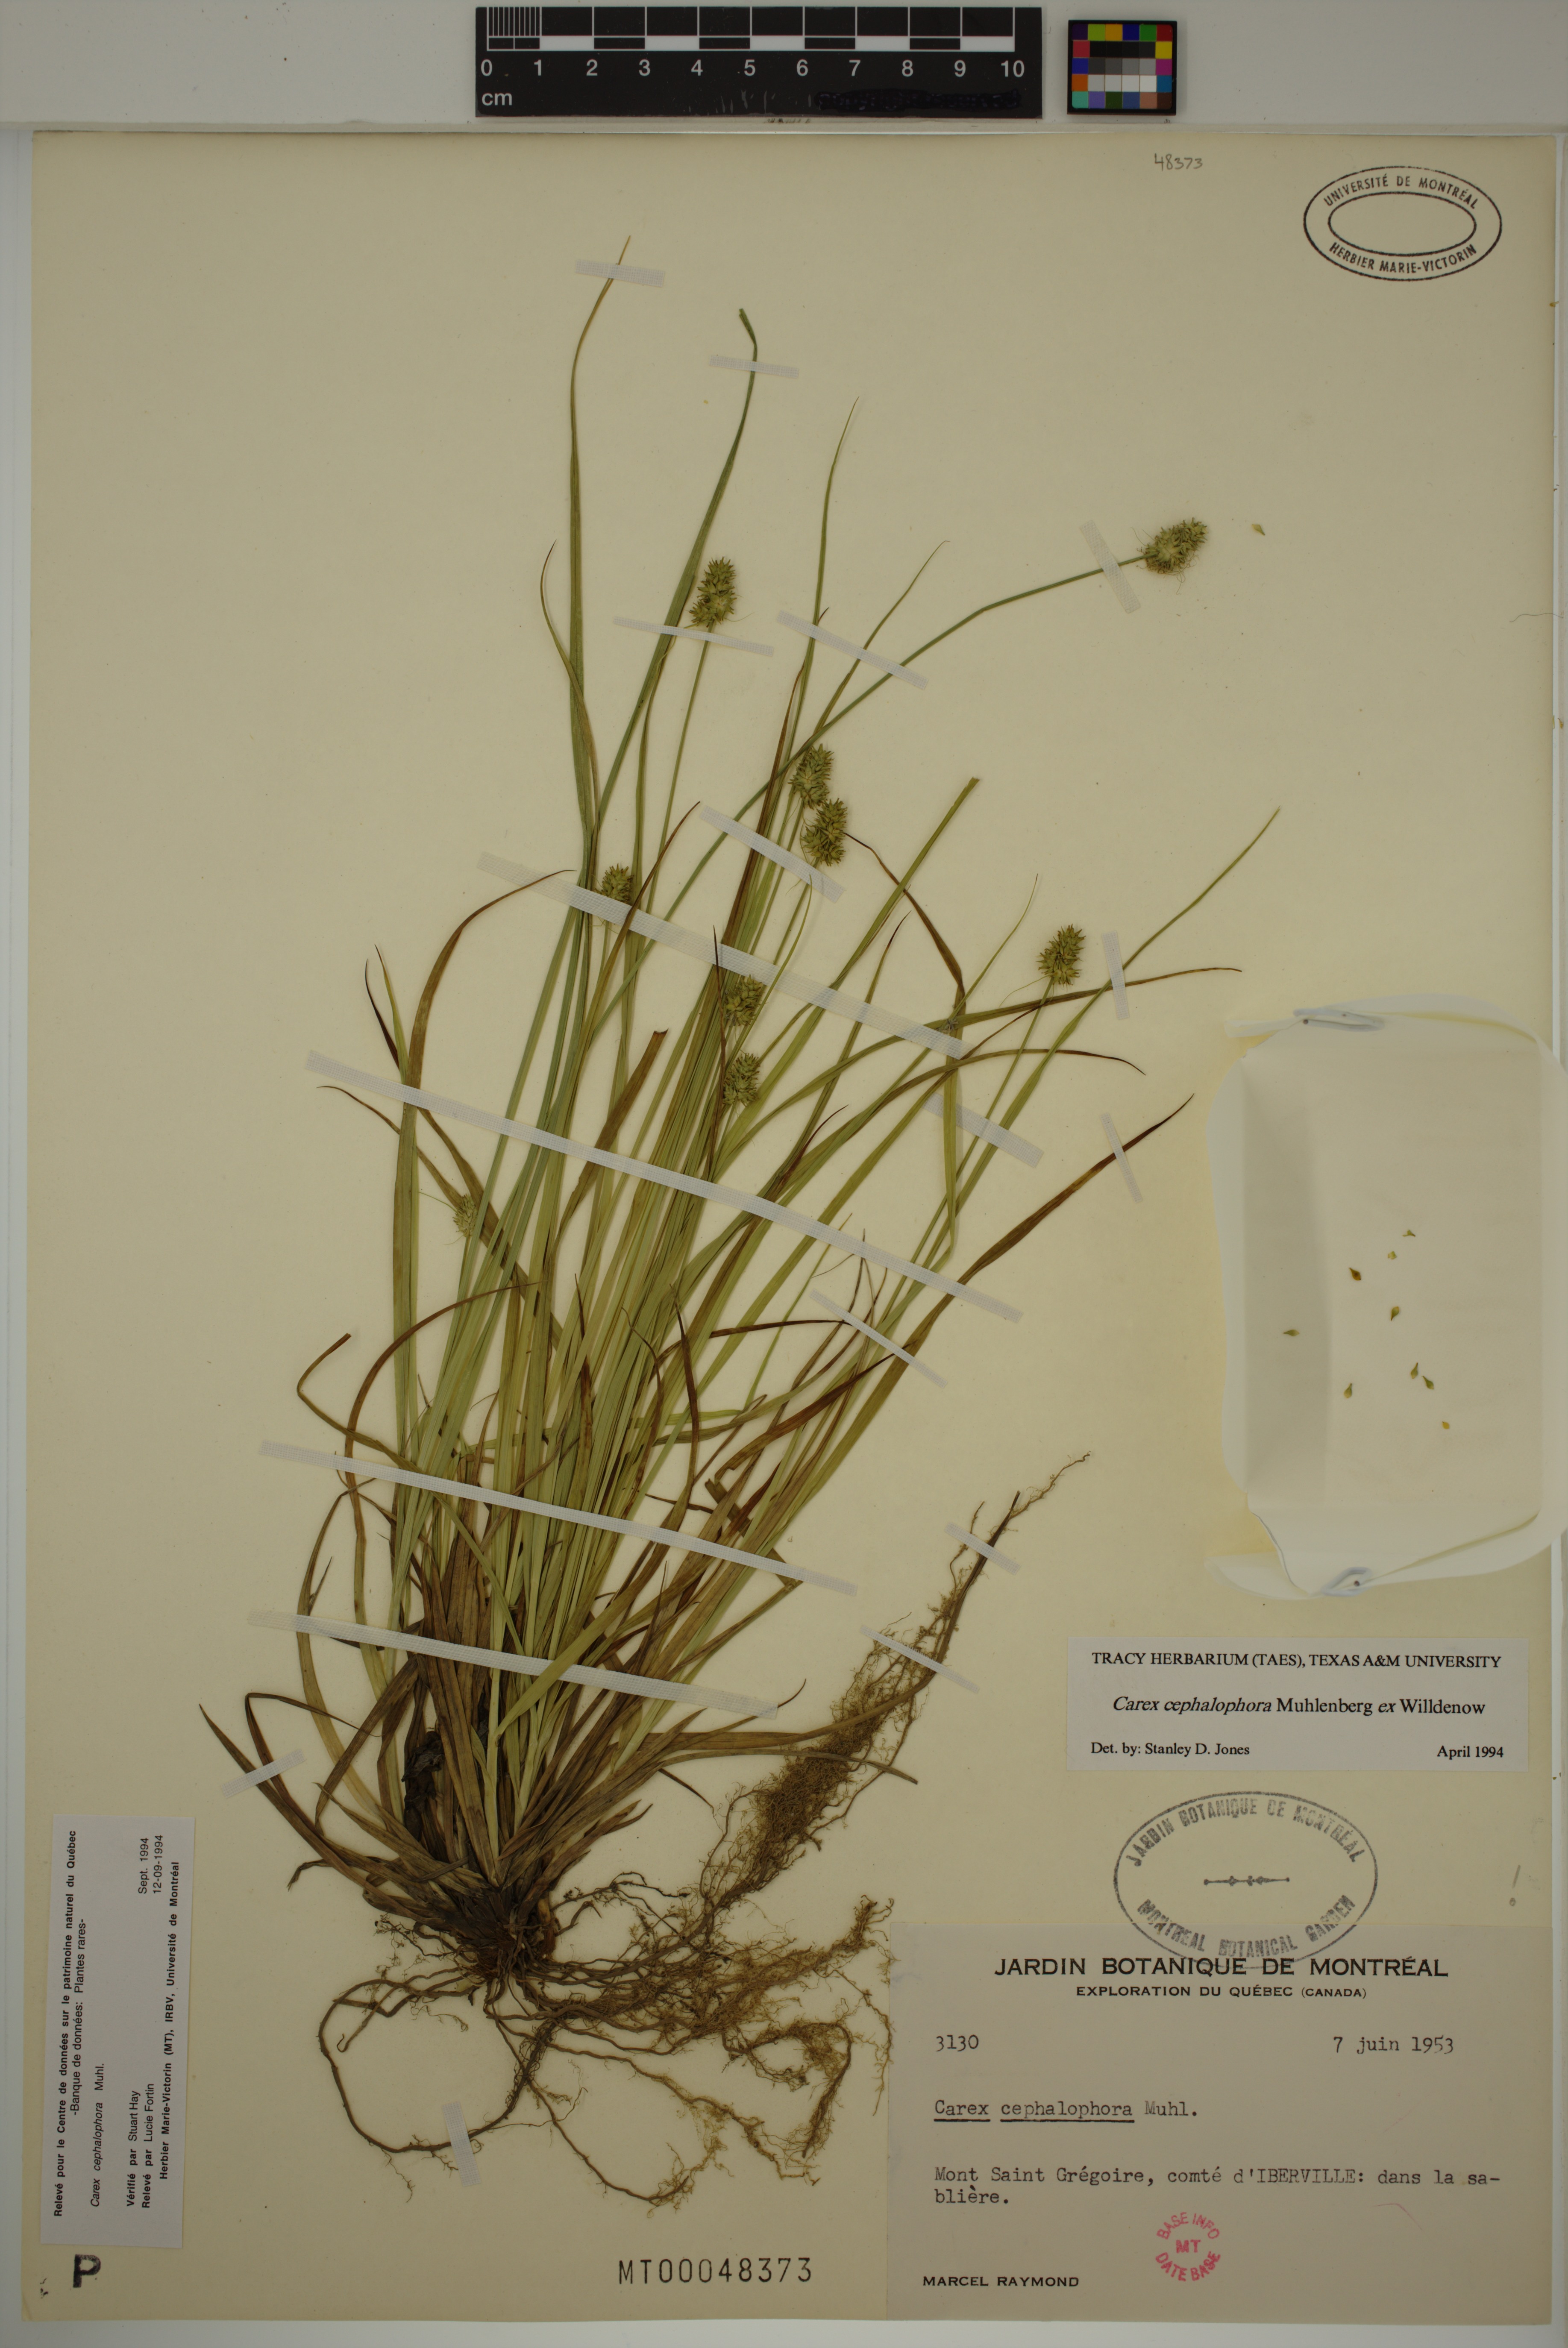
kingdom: Plantae
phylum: Tracheophyta
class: Liliopsida
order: Poales
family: Cyperaceae
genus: Carex
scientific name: Carex cephalophora
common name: Oval-headed sedge
